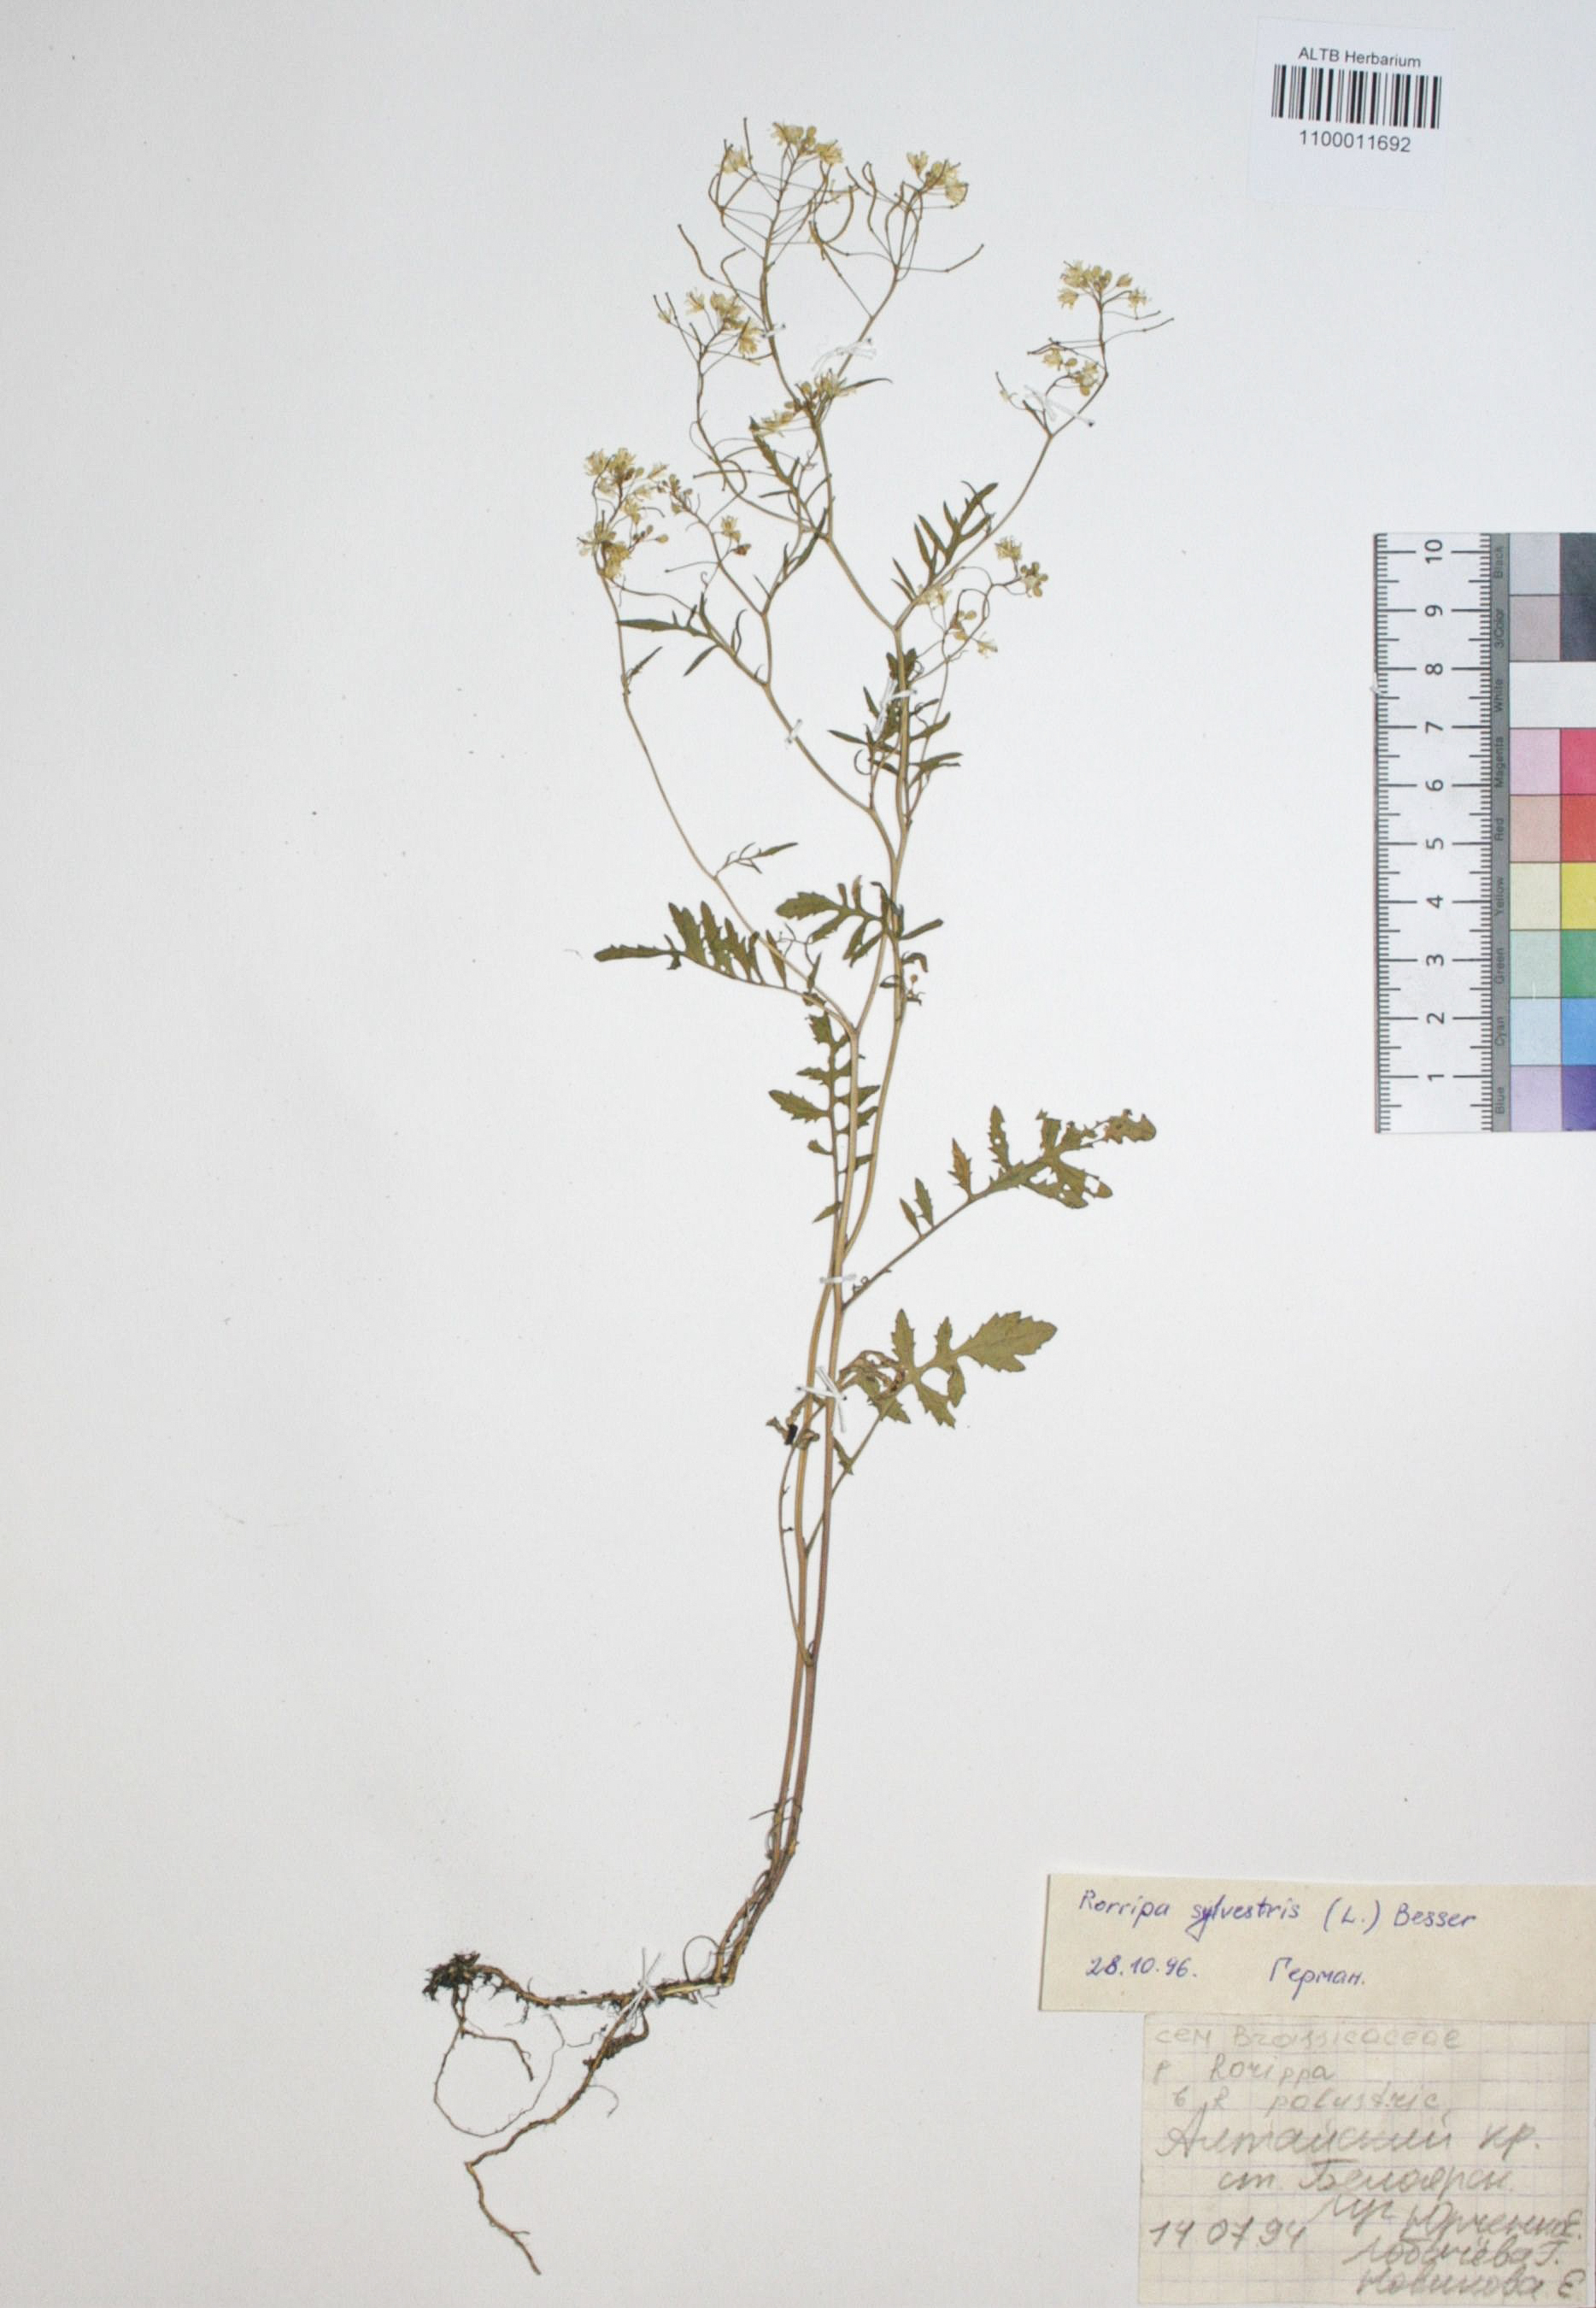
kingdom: Plantae
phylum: Tracheophyta
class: Magnoliopsida
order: Brassicales
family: Brassicaceae
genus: Rorippa
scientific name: Rorippa sylvestris
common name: Creeping yellowcress
